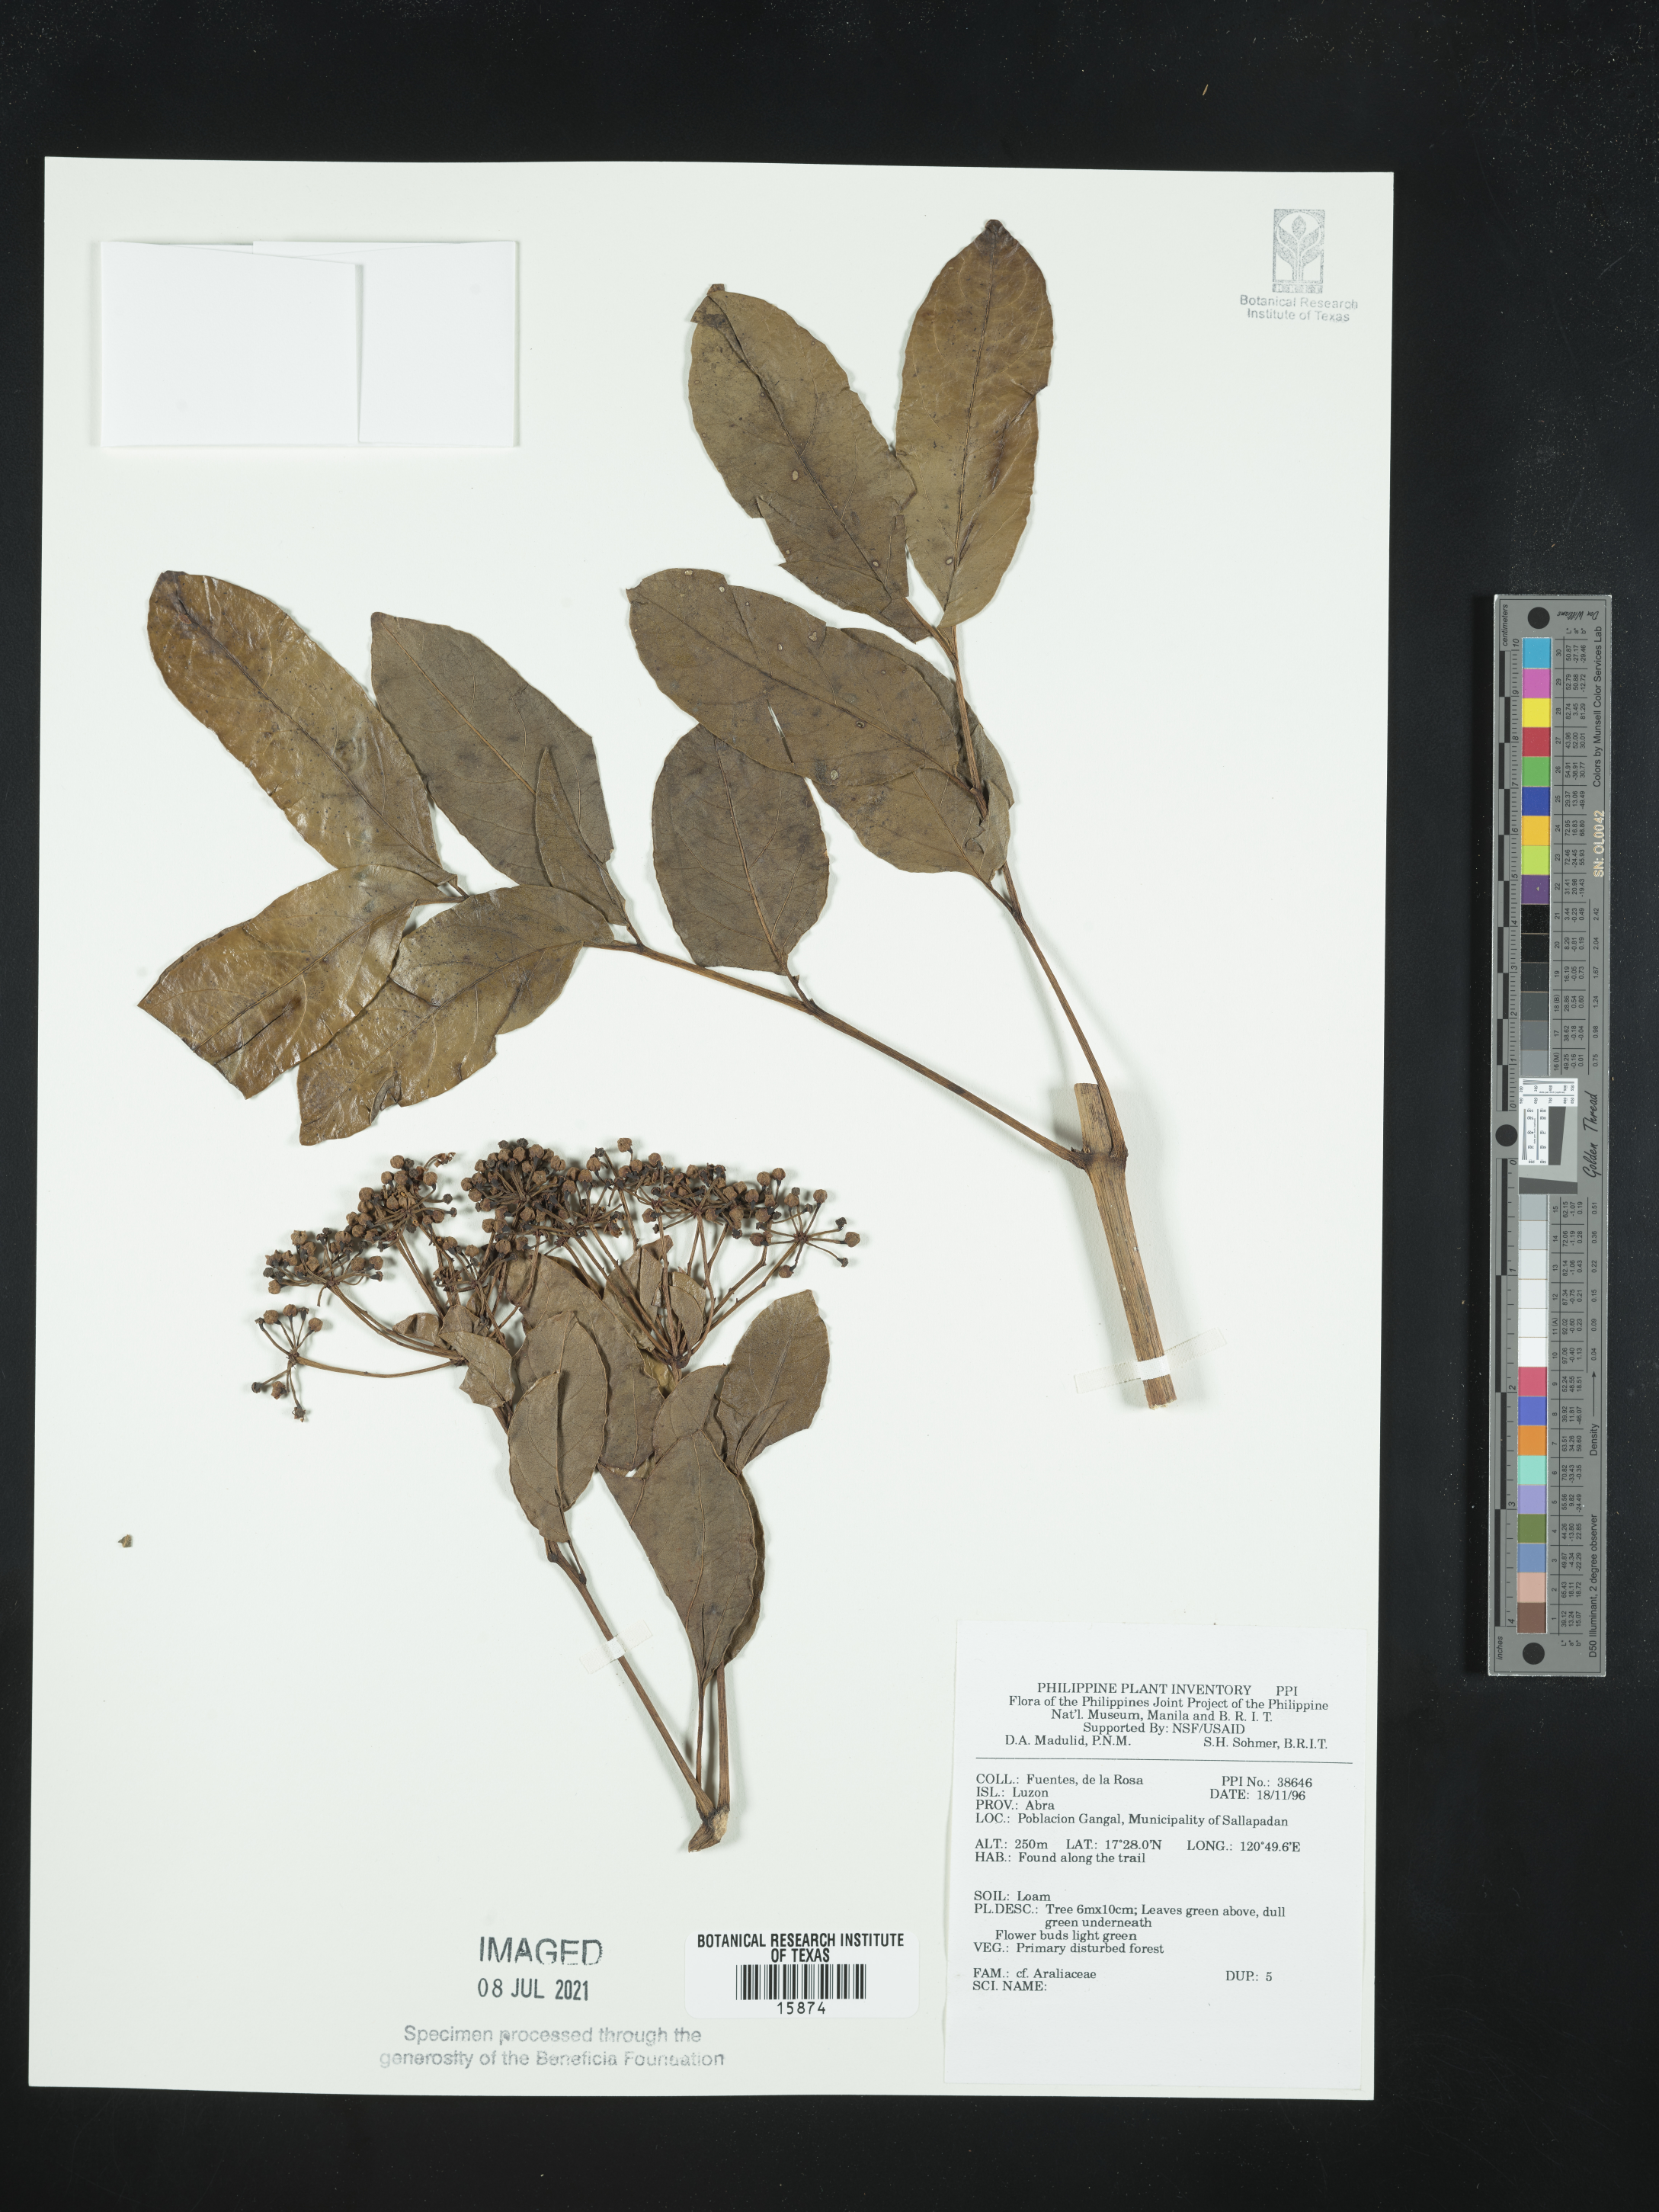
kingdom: Plantae
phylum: Tracheophyta
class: Magnoliopsida
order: Apiales
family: Araliaceae
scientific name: Araliaceae
